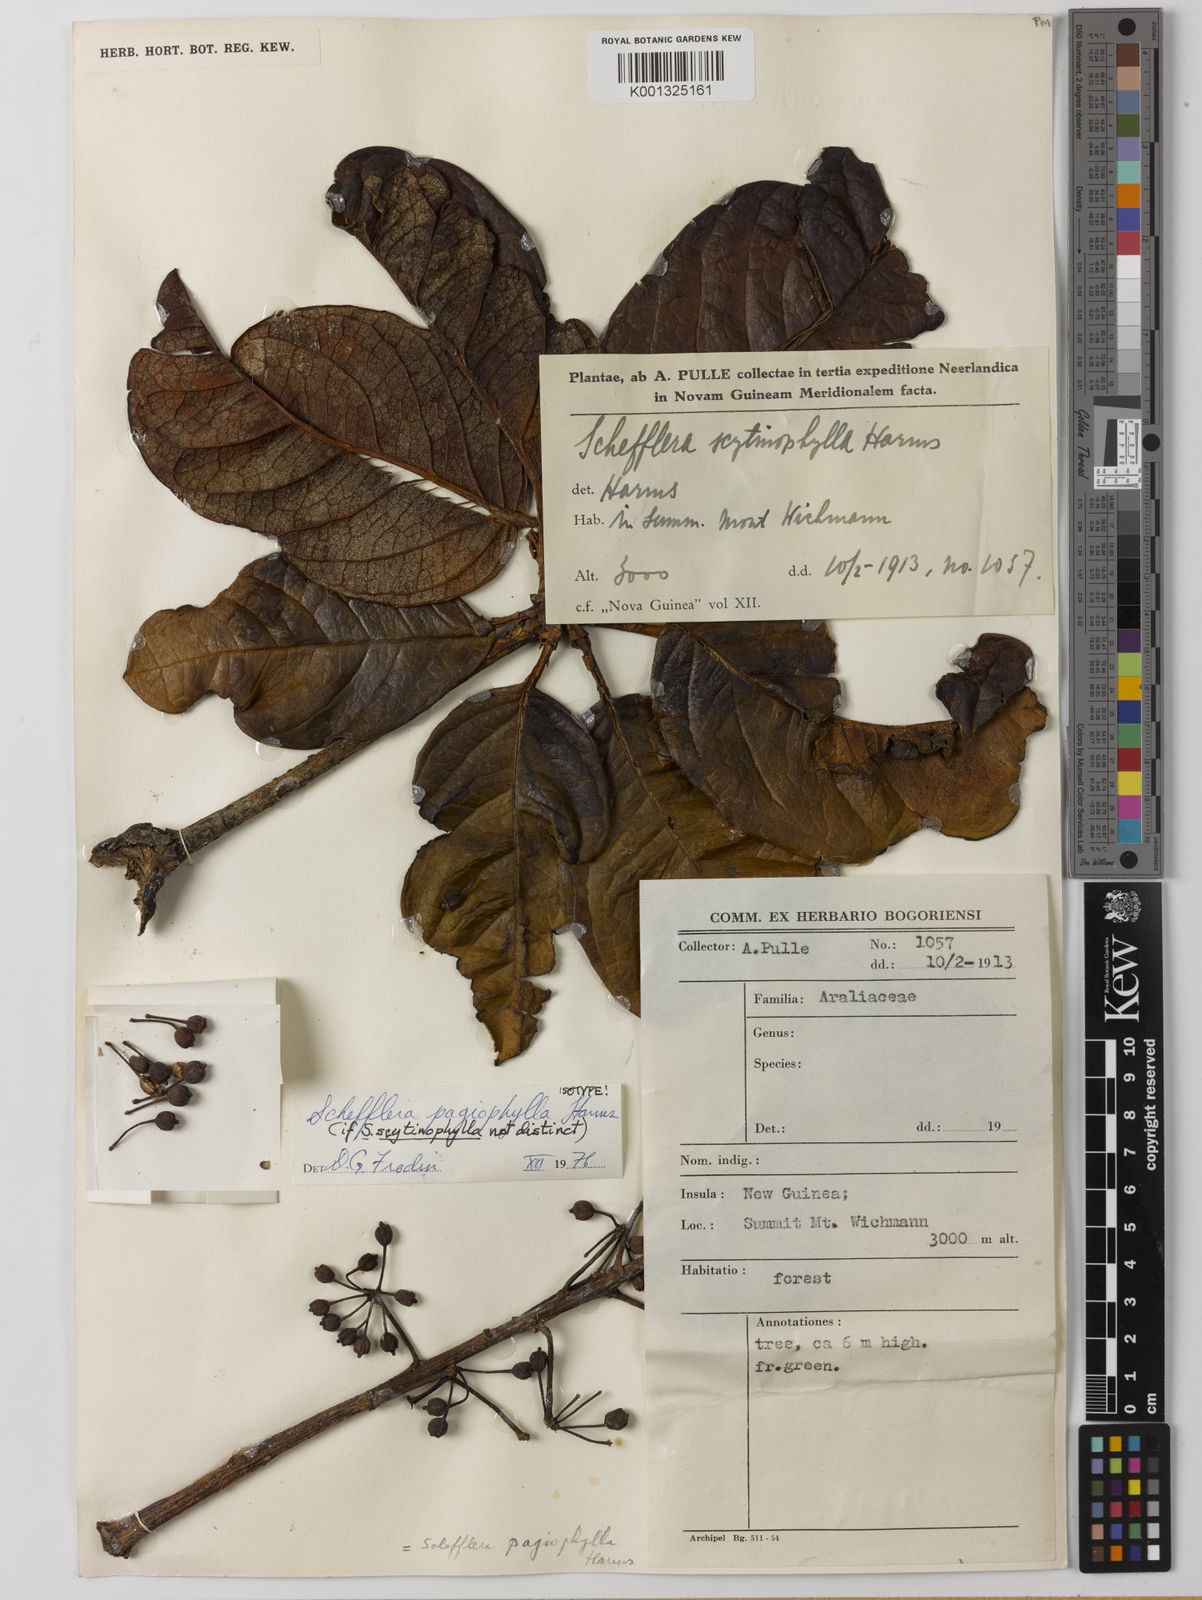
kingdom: Plantae
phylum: Tracheophyta
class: Magnoliopsida
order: Apiales
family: Araliaceae
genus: Heptapleurum
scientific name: Heptapleurum pagiophyllum
